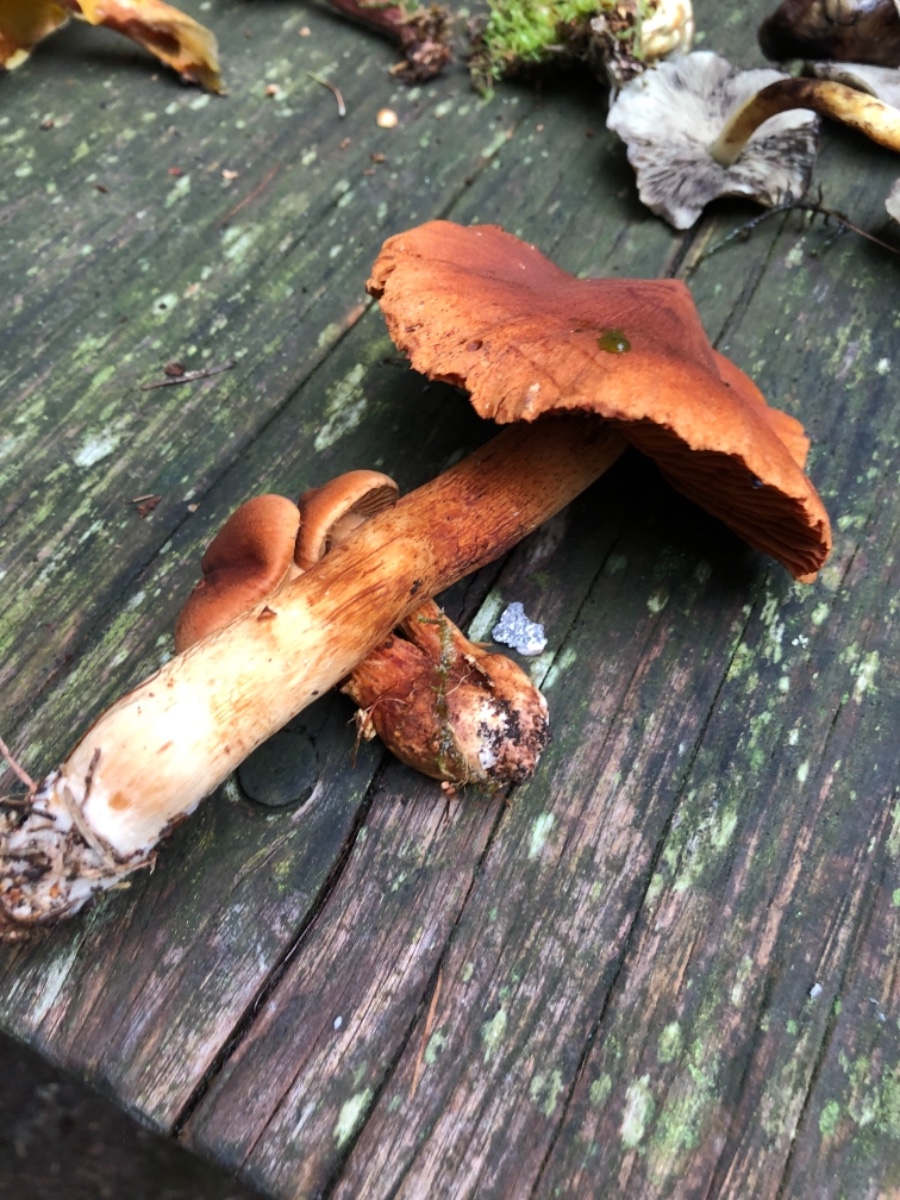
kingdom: Fungi
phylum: Basidiomycota
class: Agaricomycetes
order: Agaricales
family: Cortinariaceae
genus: Cortinarius
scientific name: Cortinarius rubellus
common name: puklet gift-slørhat
